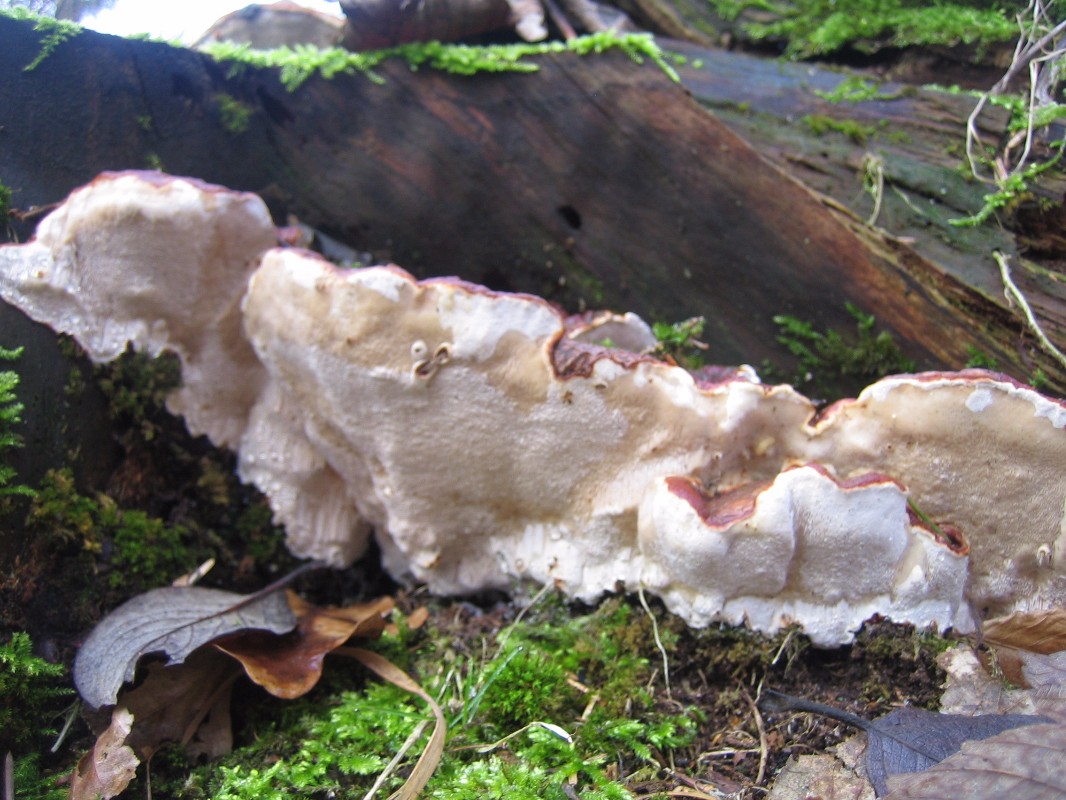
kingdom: Fungi
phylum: Basidiomycota
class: Agaricomycetes
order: Polyporales
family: Fomitopsidaceae
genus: Fomitopsis
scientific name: Fomitopsis pinicola
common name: randbæltet hovporesvamp
